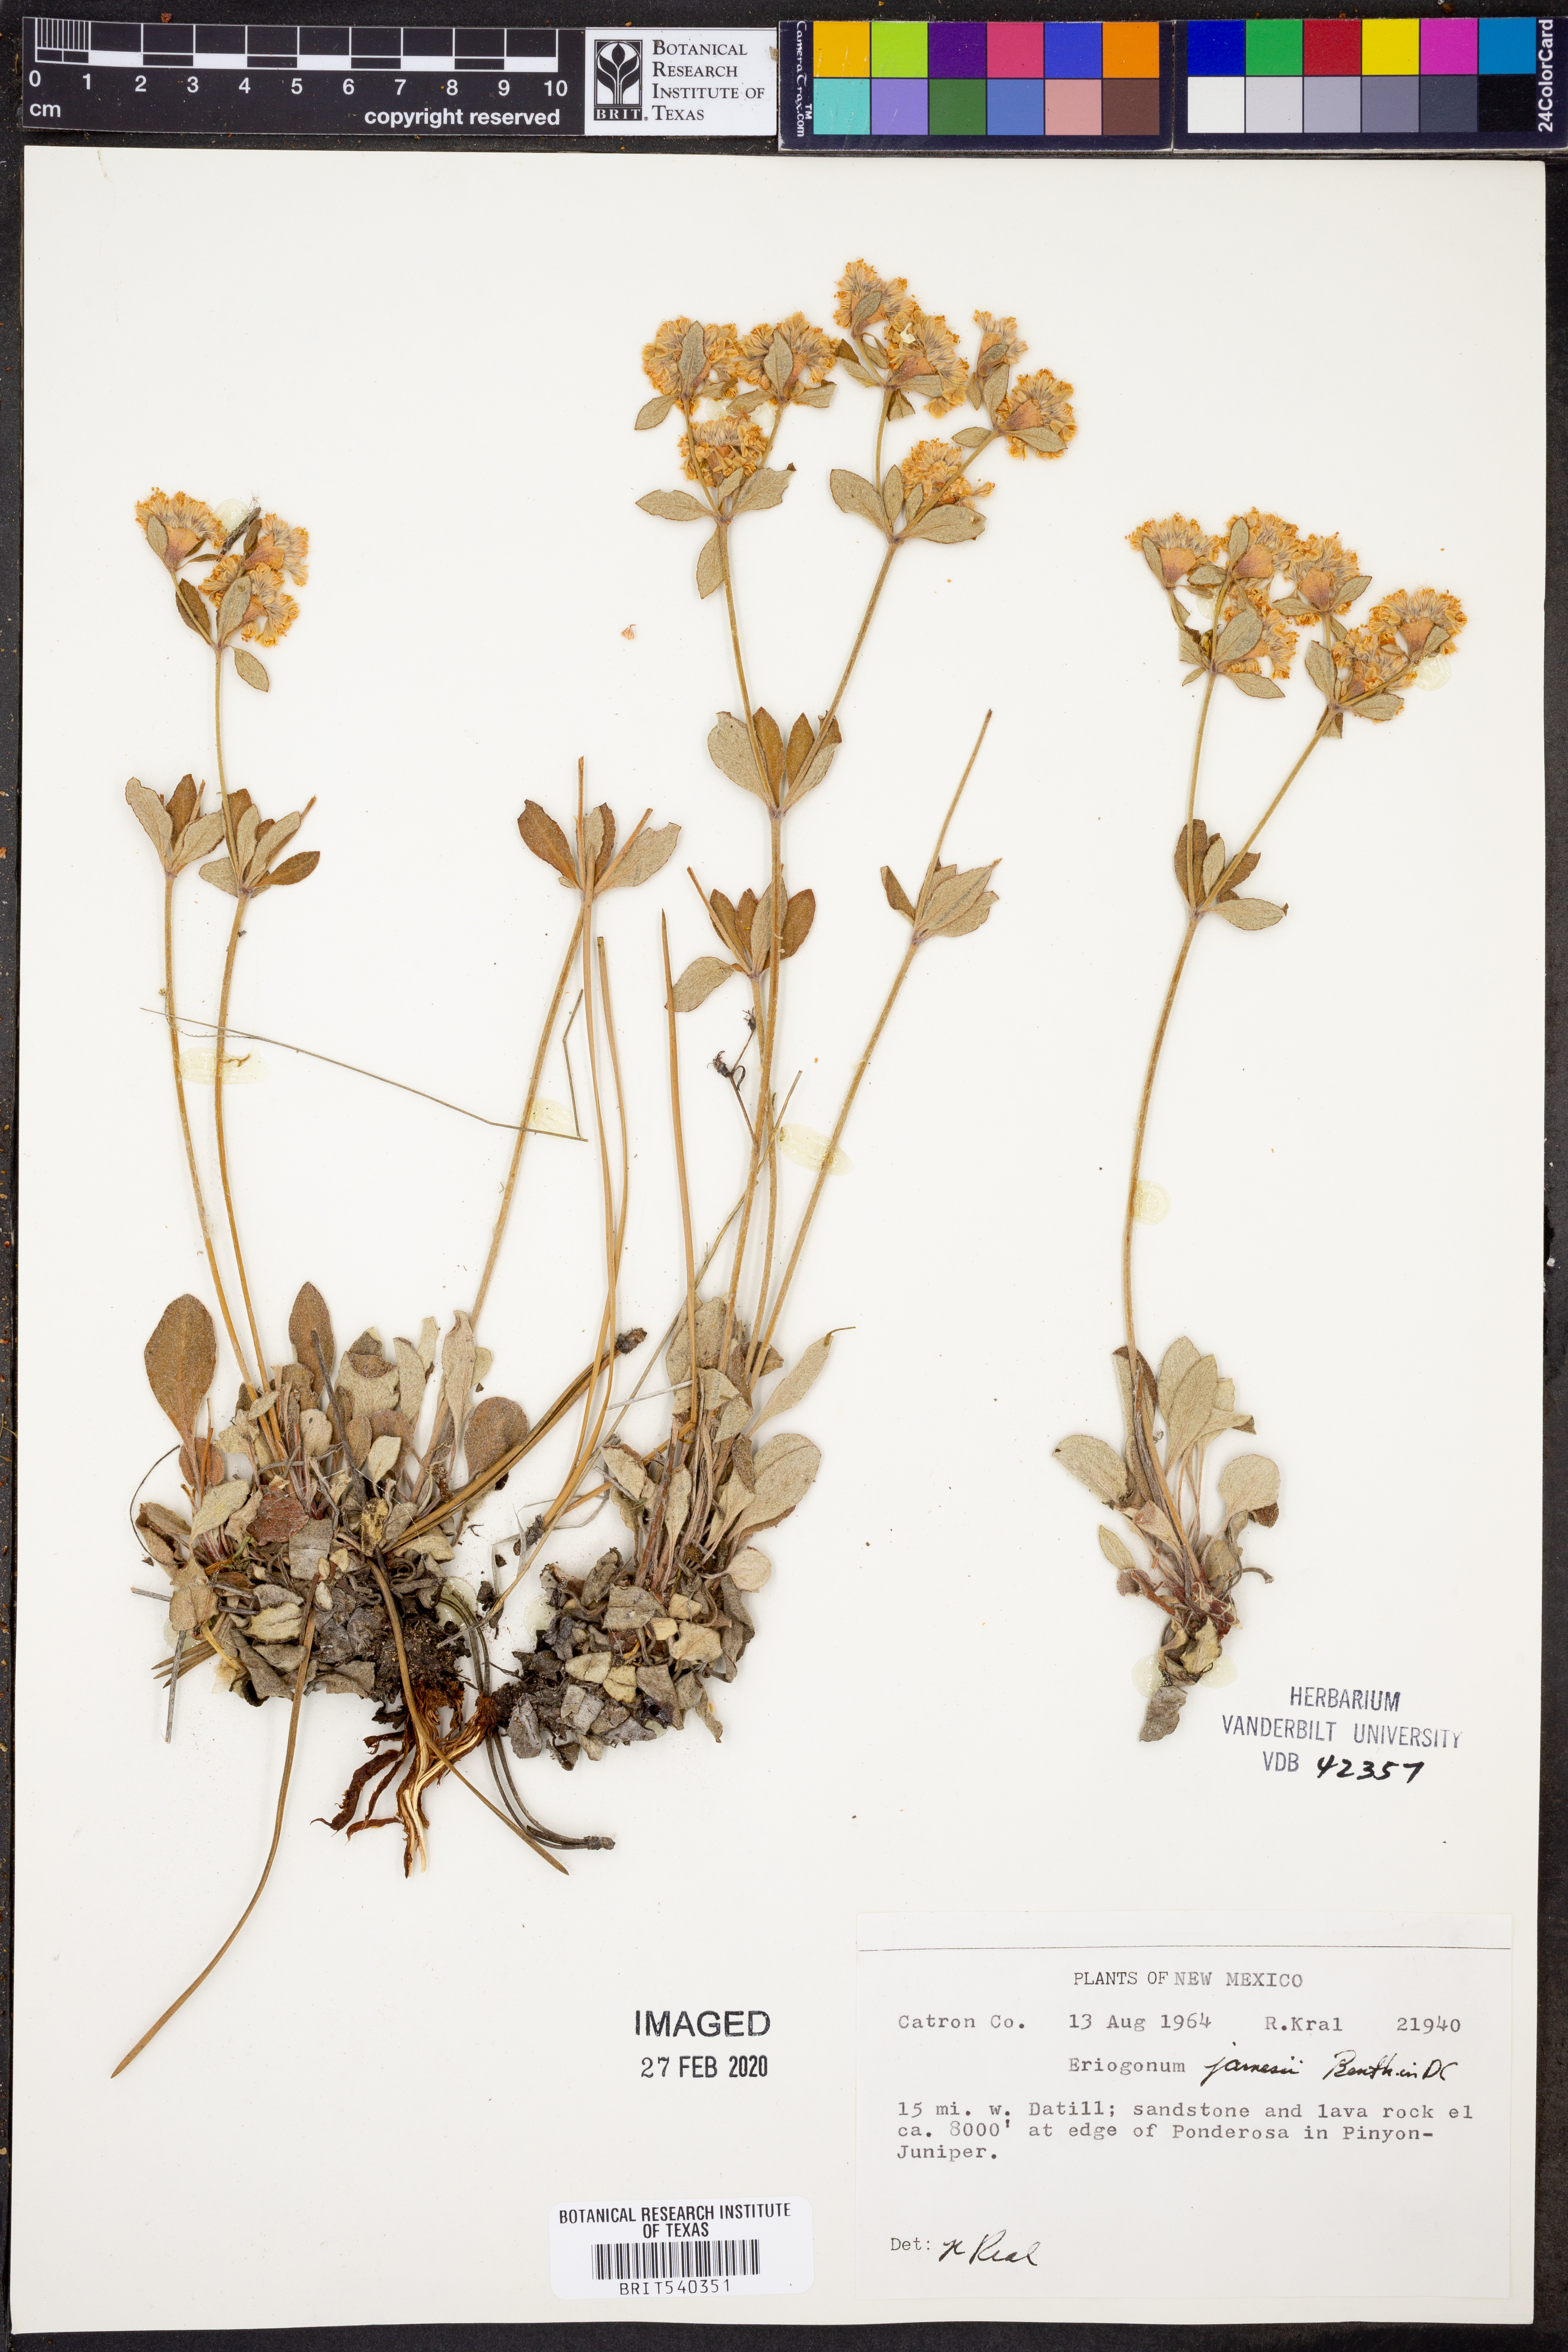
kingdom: Plantae
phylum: Tracheophyta
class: Magnoliopsida
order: Caryophyllales
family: Polygonaceae
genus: Eriogonum
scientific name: Eriogonum jamesii
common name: Antelope-sage
